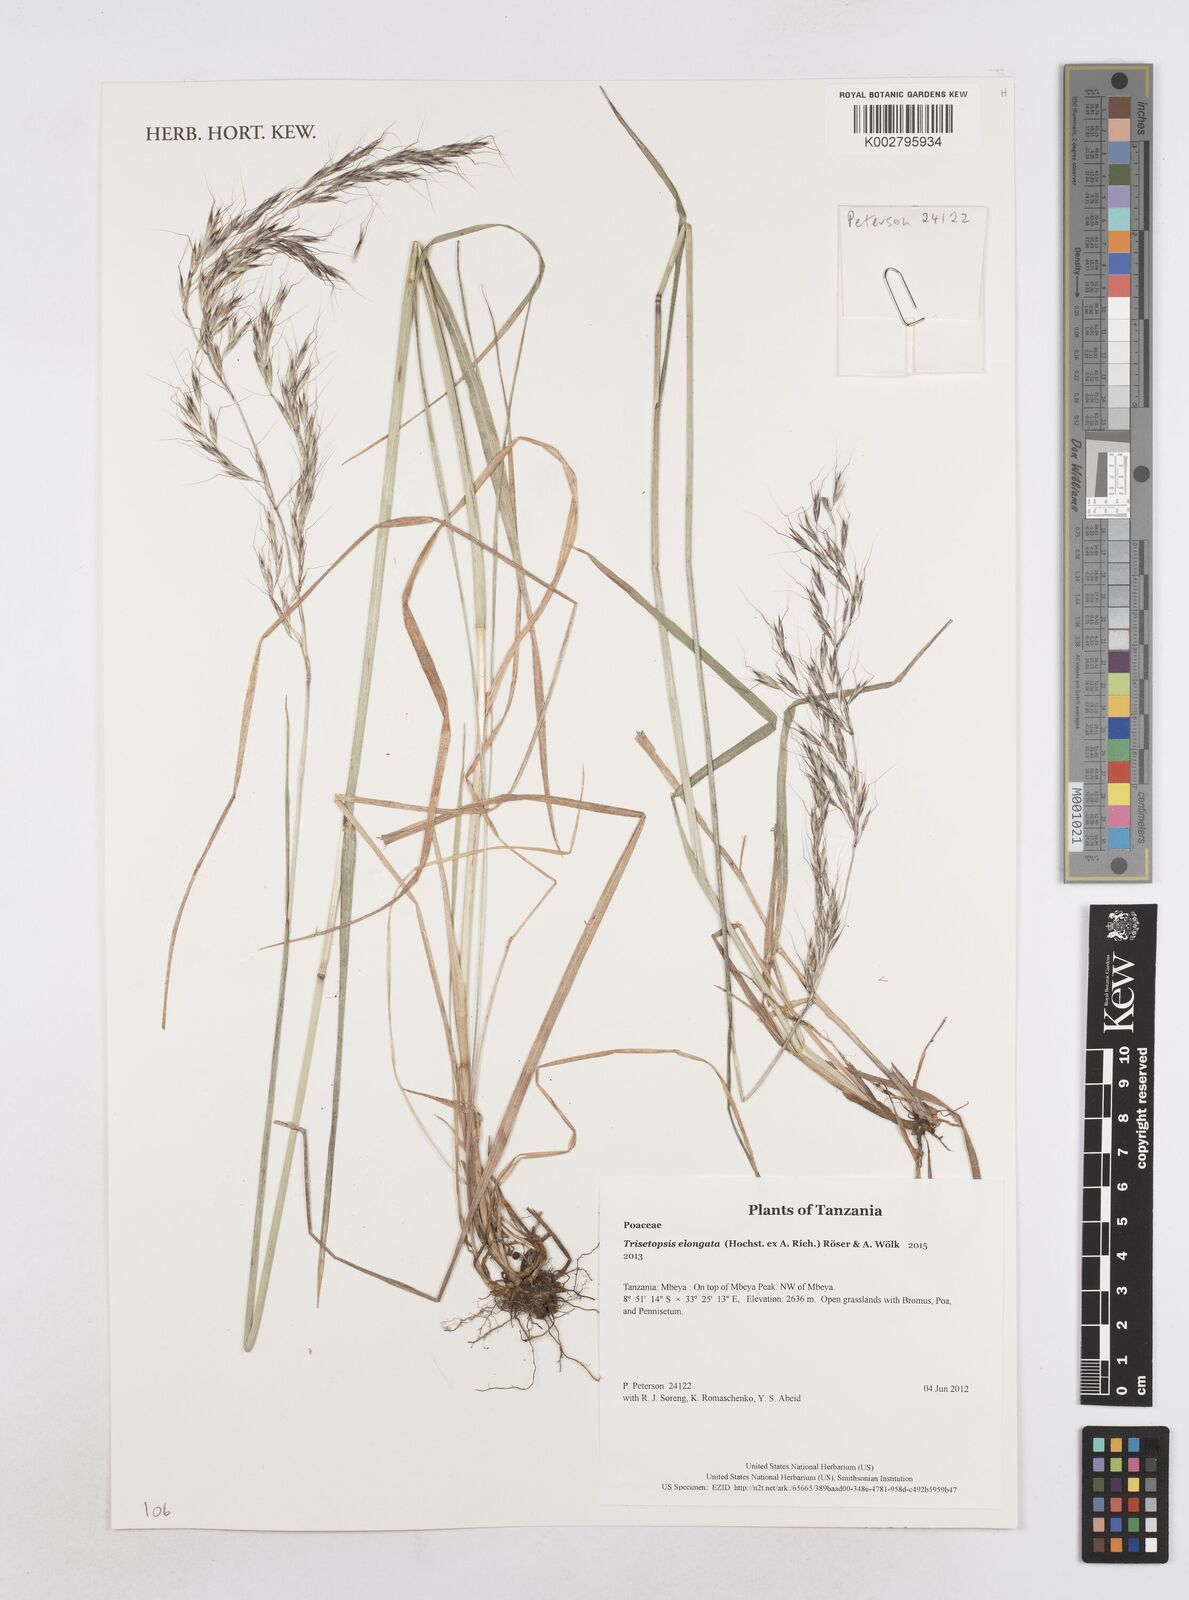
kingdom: Plantae
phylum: Tracheophyta
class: Liliopsida
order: Poales
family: Poaceae
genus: Trisetopsis
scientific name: Trisetopsis elongata
